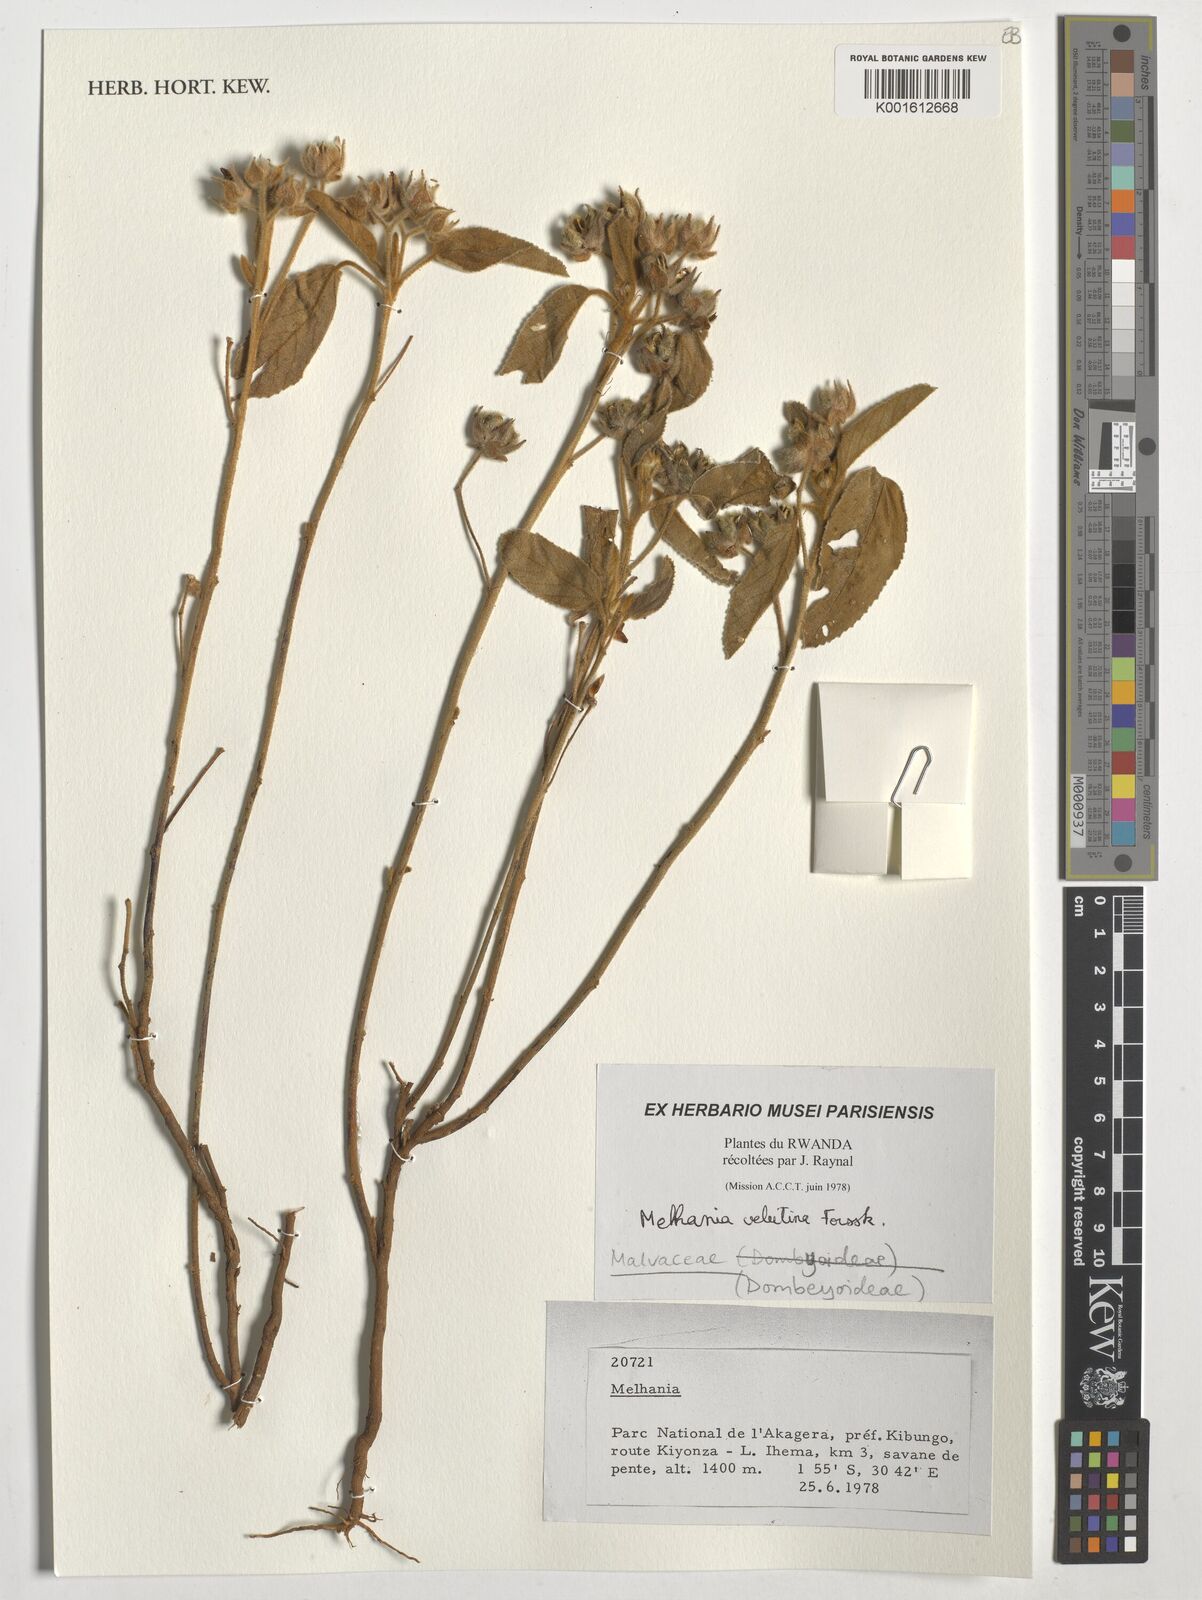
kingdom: Plantae
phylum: Tracheophyta
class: Magnoliopsida
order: Malvales
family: Malvaceae
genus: Melhania
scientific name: Melhania velutina
